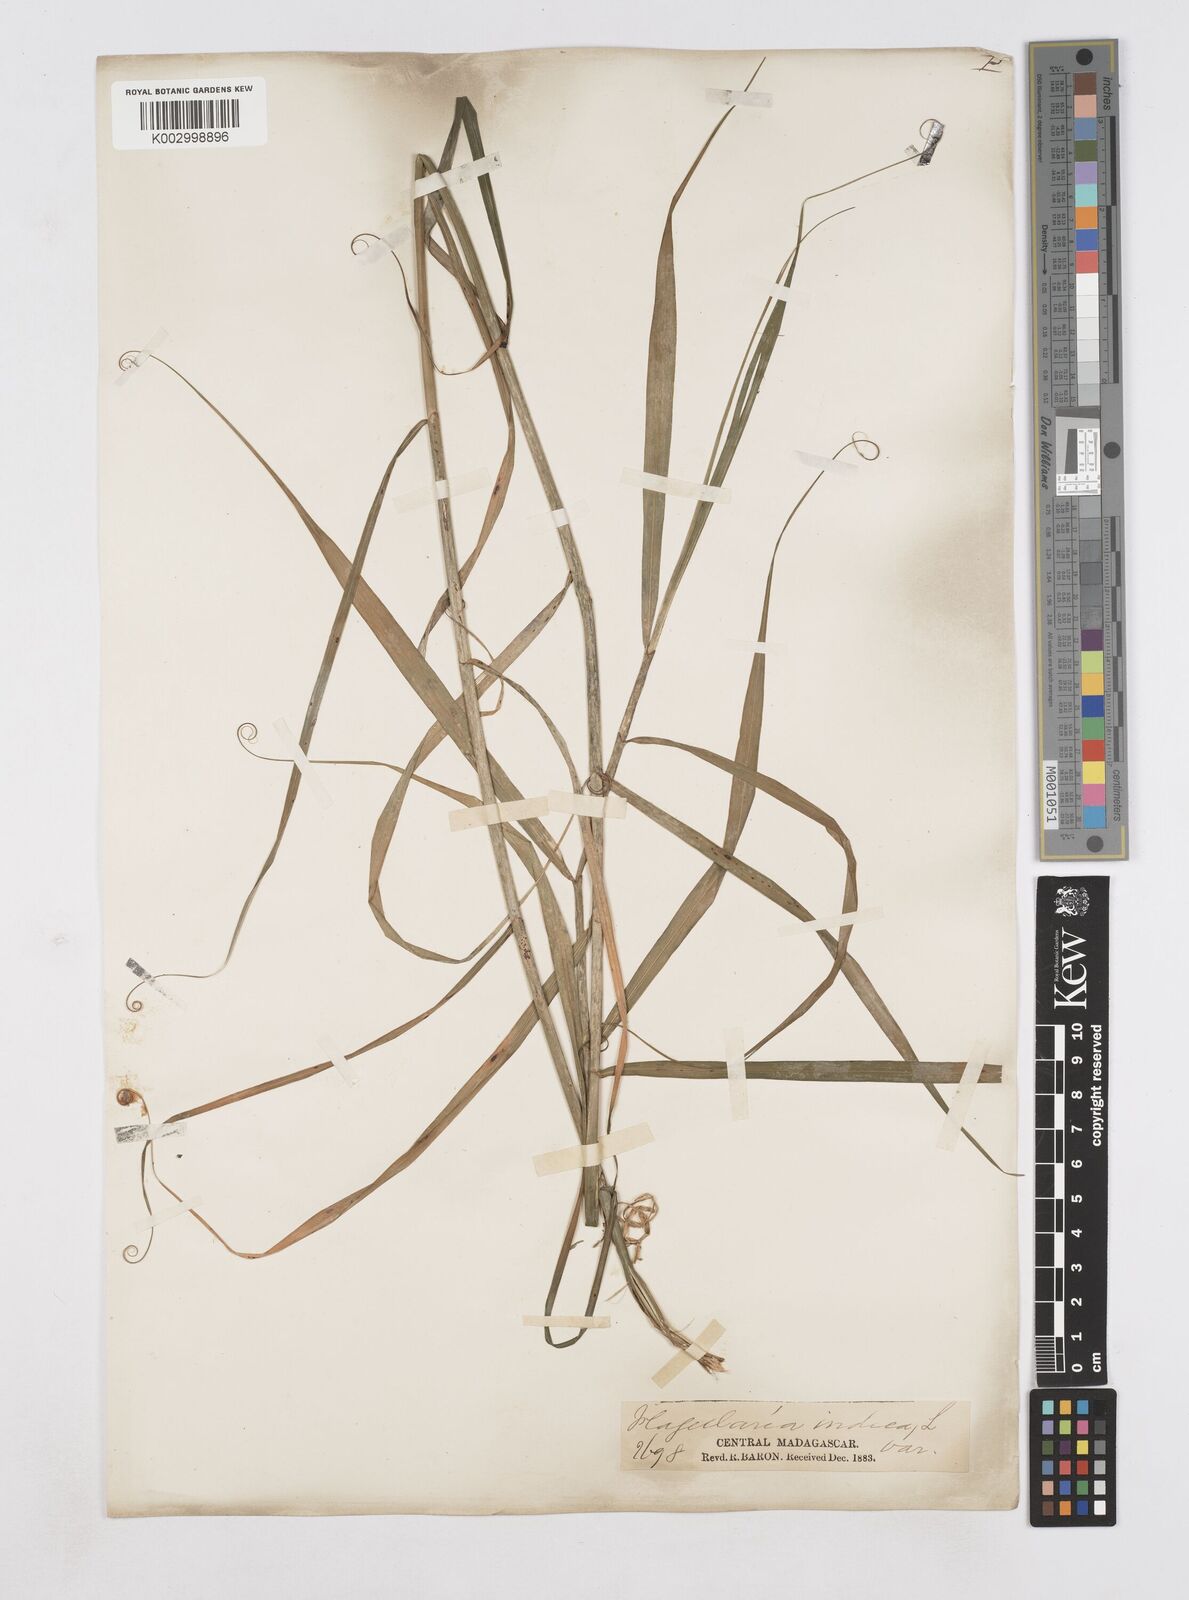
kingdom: Plantae
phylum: Tracheophyta
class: Liliopsida
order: Poales
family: Flagellariaceae
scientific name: Flagellariaceae
